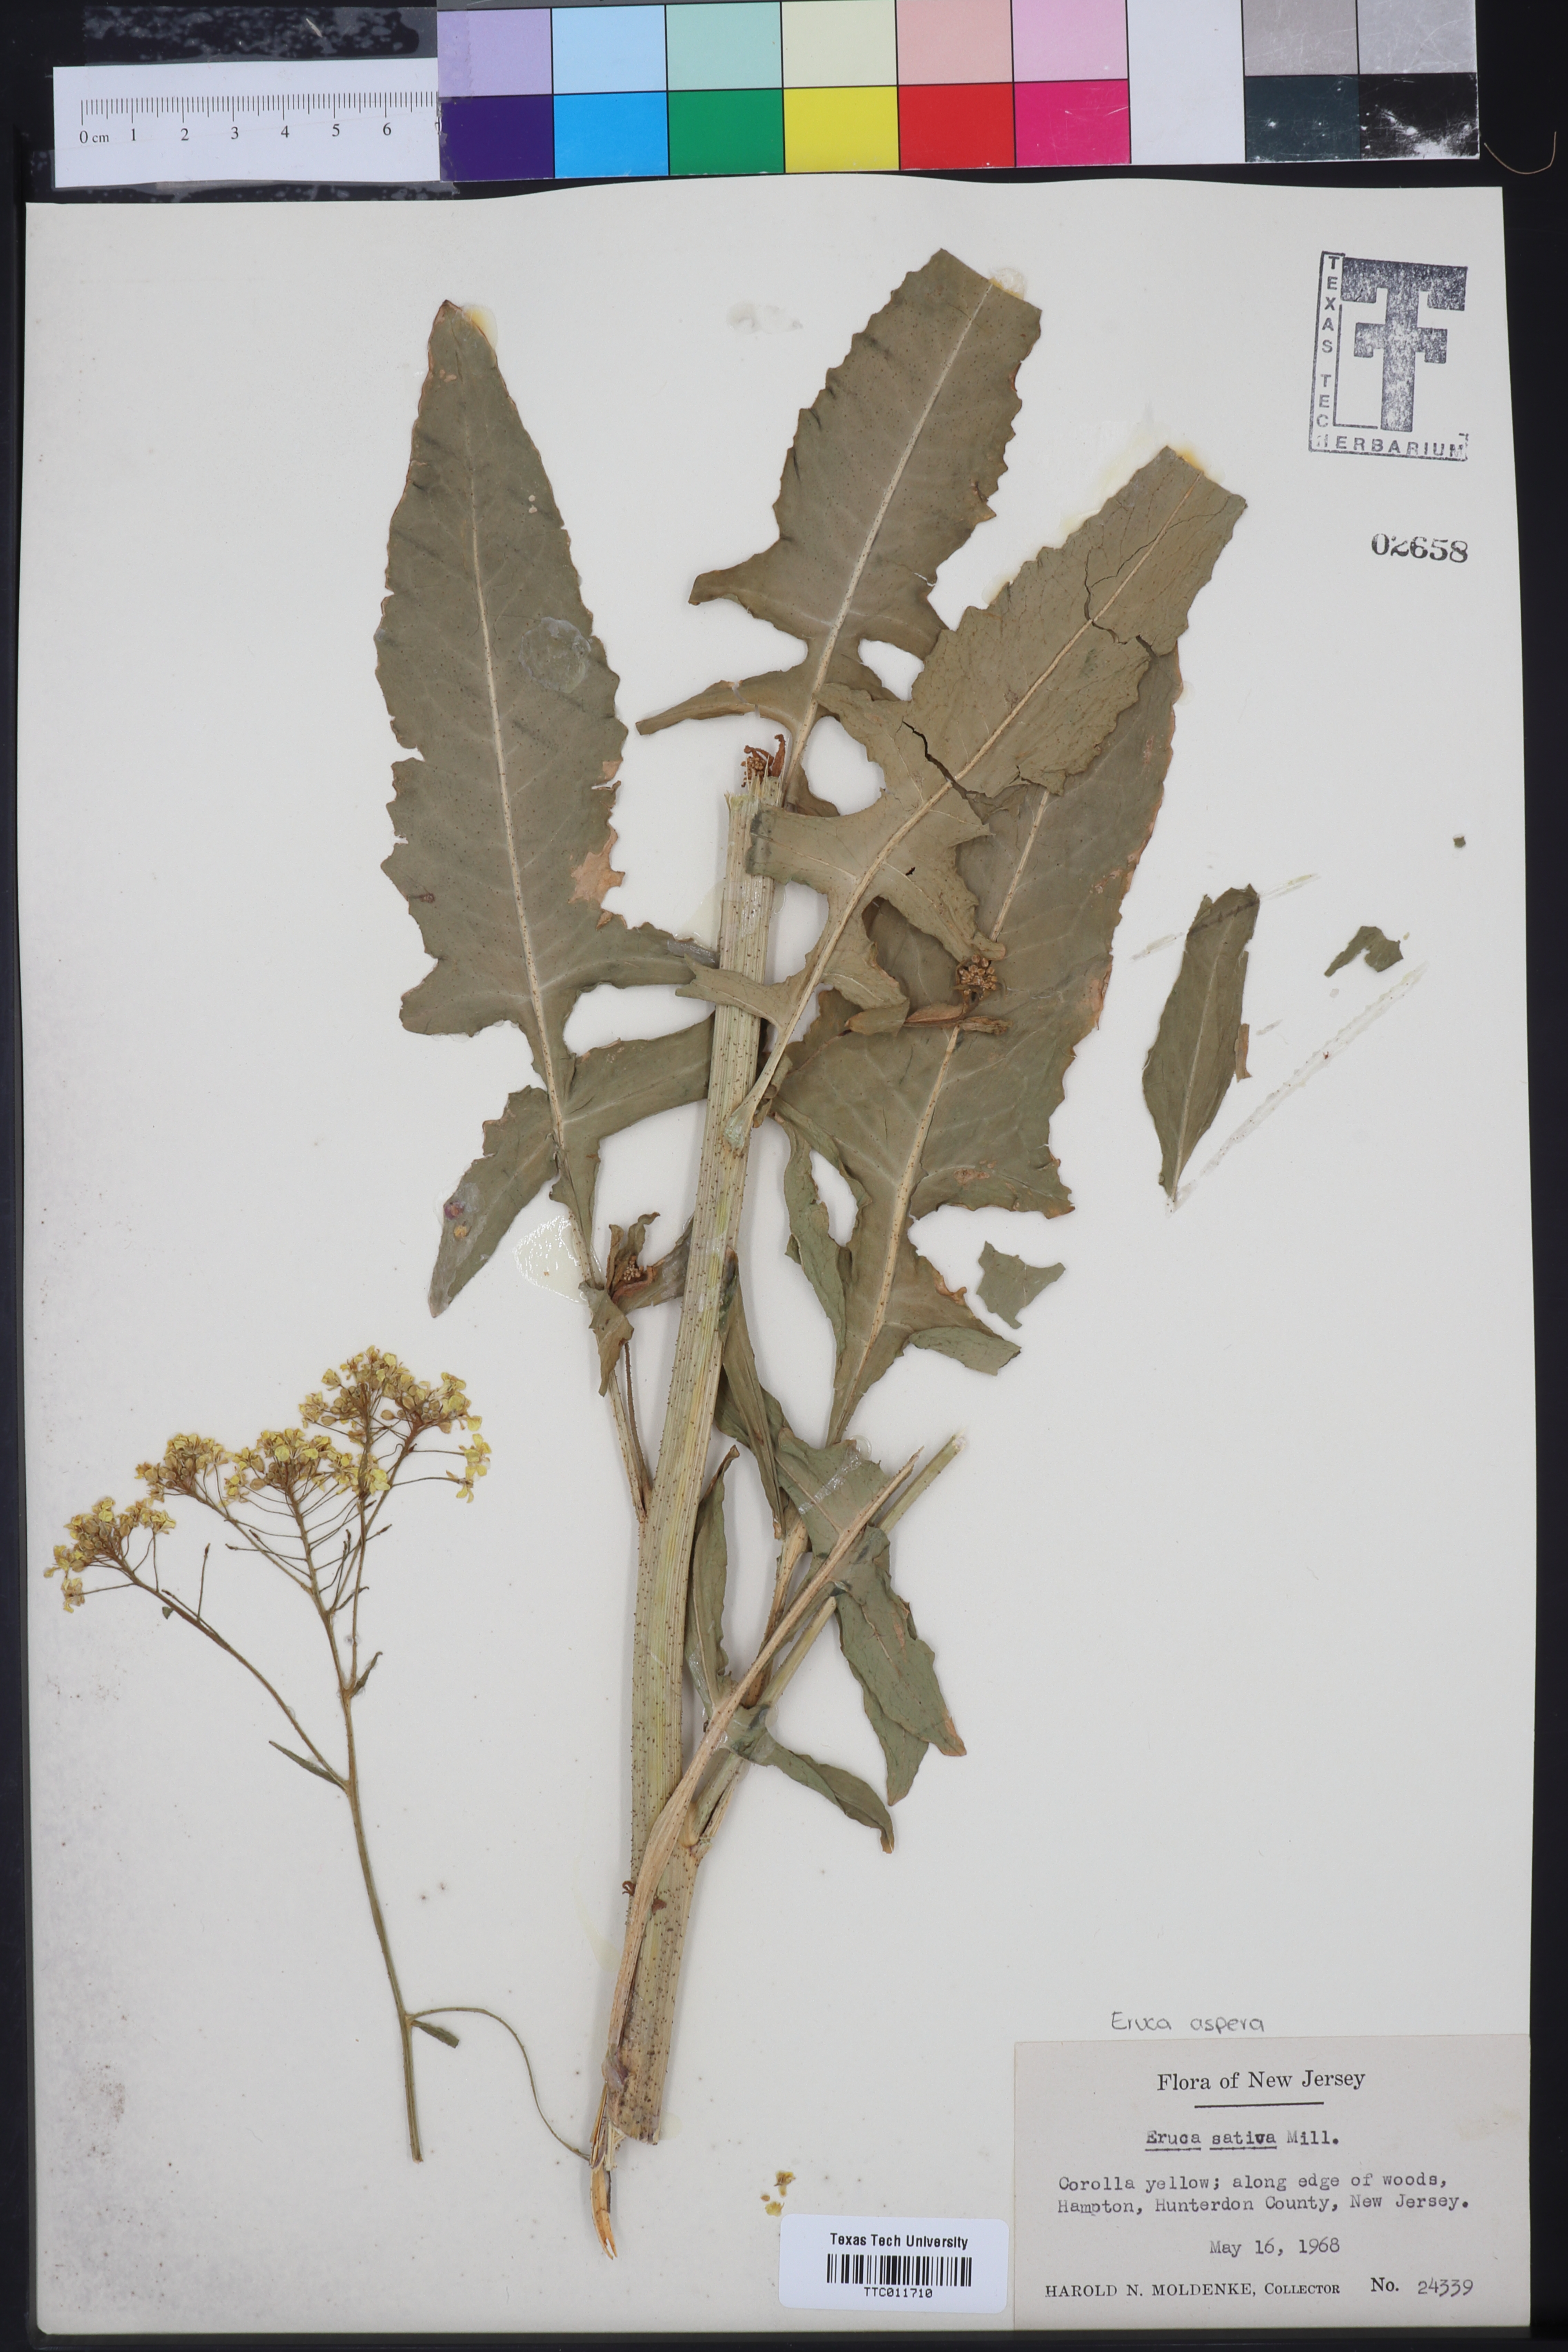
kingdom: Plantae
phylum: Tracheophyta
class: Magnoliopsida
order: Brassicales
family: Brassicaceae
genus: Eruca
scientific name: Eruca vesicaria
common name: Garden rocket
